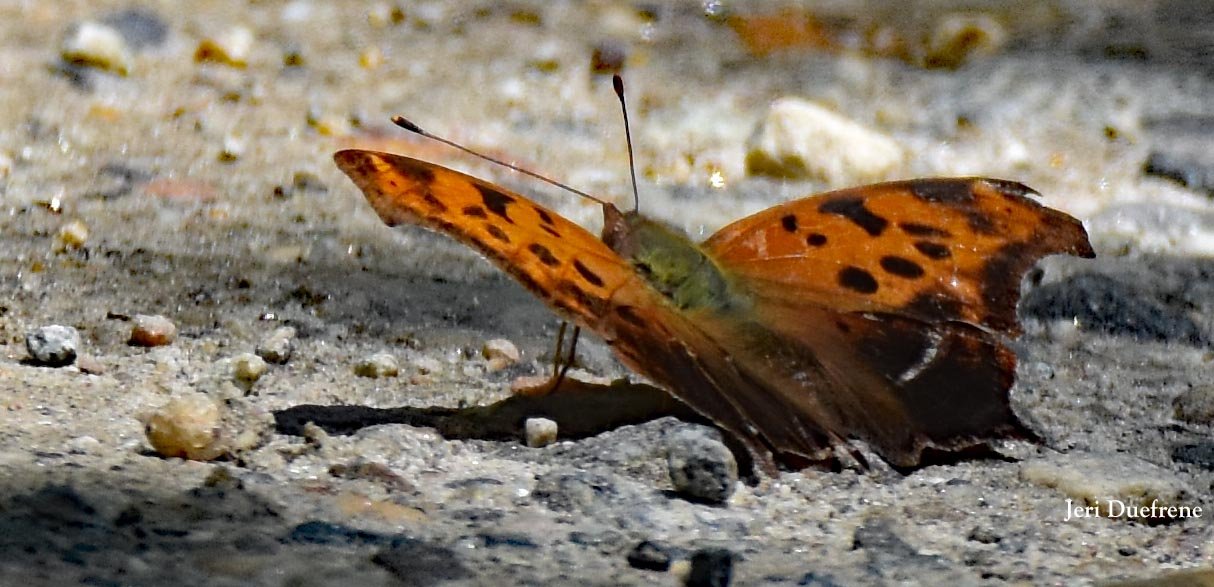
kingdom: Animalia
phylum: Arthropoda
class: Insecta
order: Lepidoptera
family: Nymphalidae
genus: Polygonia
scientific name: Polygonia interrogationis
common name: Question Mark
